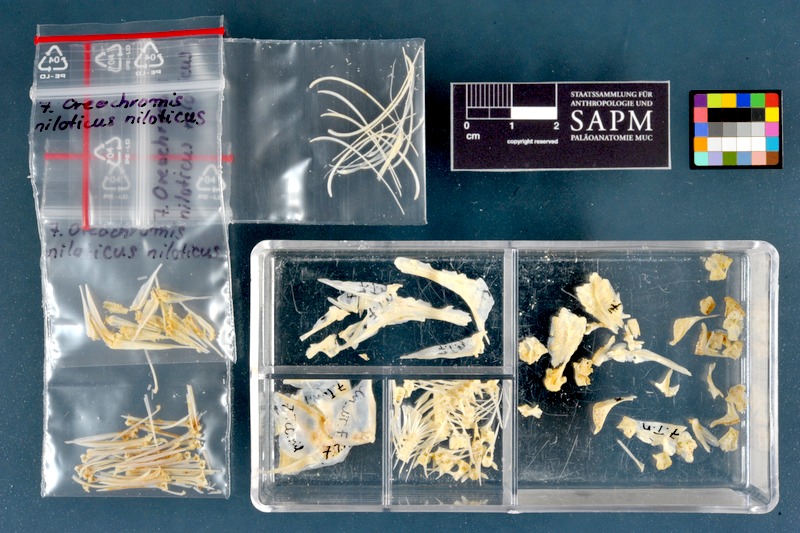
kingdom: Animalia
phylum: Chordata
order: Perciformes
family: Cichlidae
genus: Oreochromis
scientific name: Oreochromis niloticus
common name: Nile tilapia
